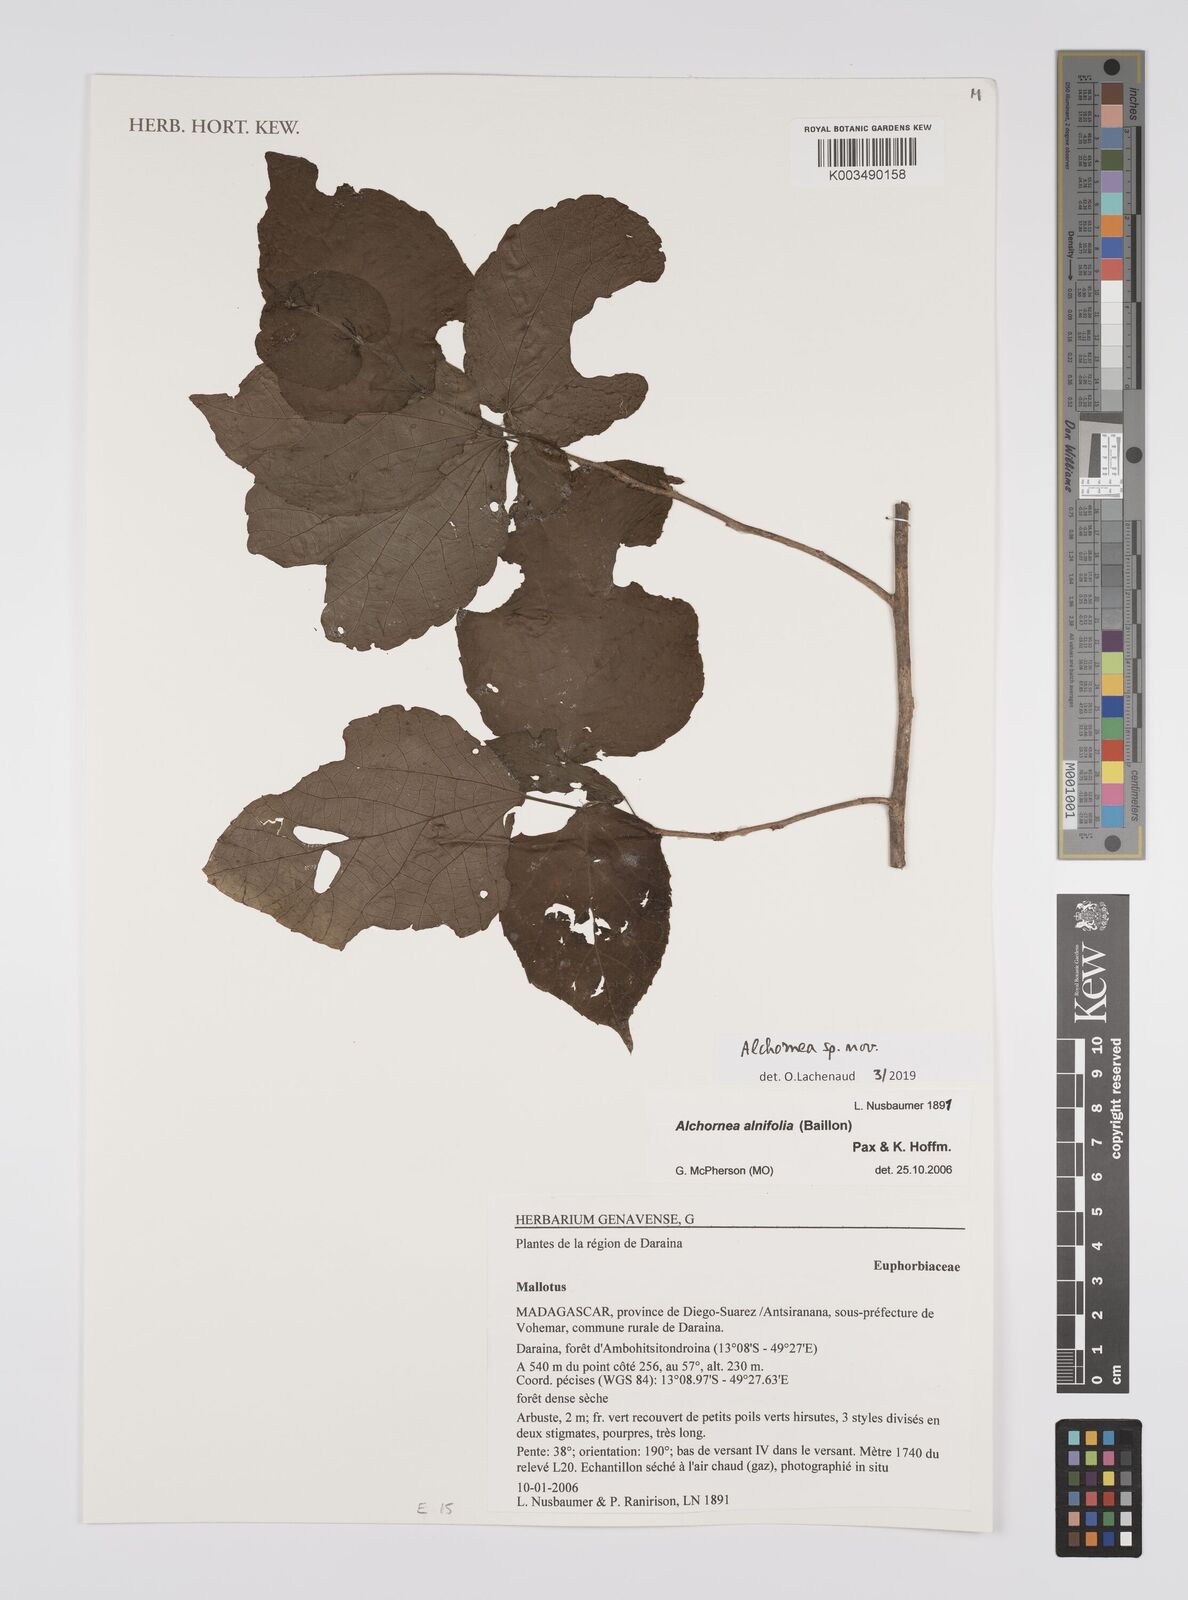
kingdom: Plantae
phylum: Tracheophyta
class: Magnoliopsida
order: Malpighiales
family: Euphorbiaceae
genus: Alchornea
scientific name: Alchornea
